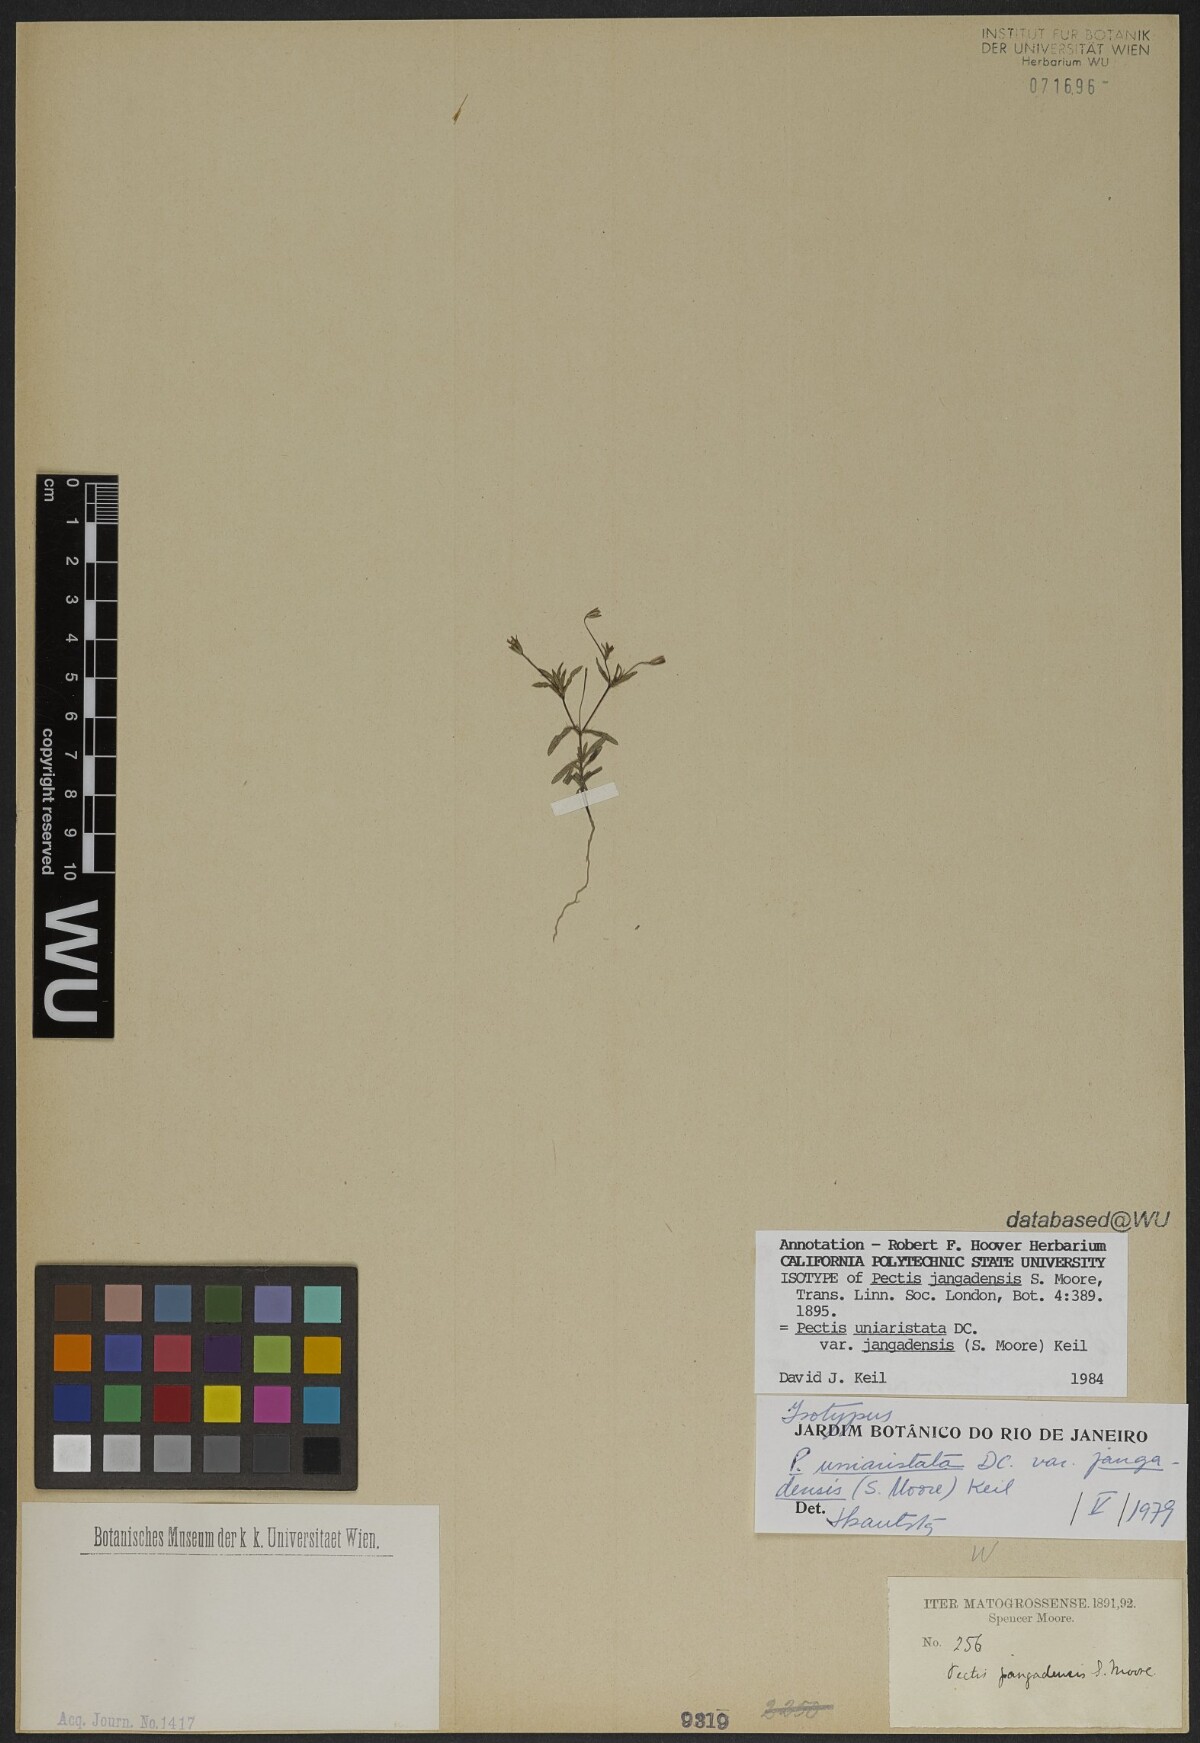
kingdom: Plantae
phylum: Tracheophyta
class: Magnoliopsida
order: Asterales
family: Asteraceae
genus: Pectis
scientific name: Pectis uniaristata
